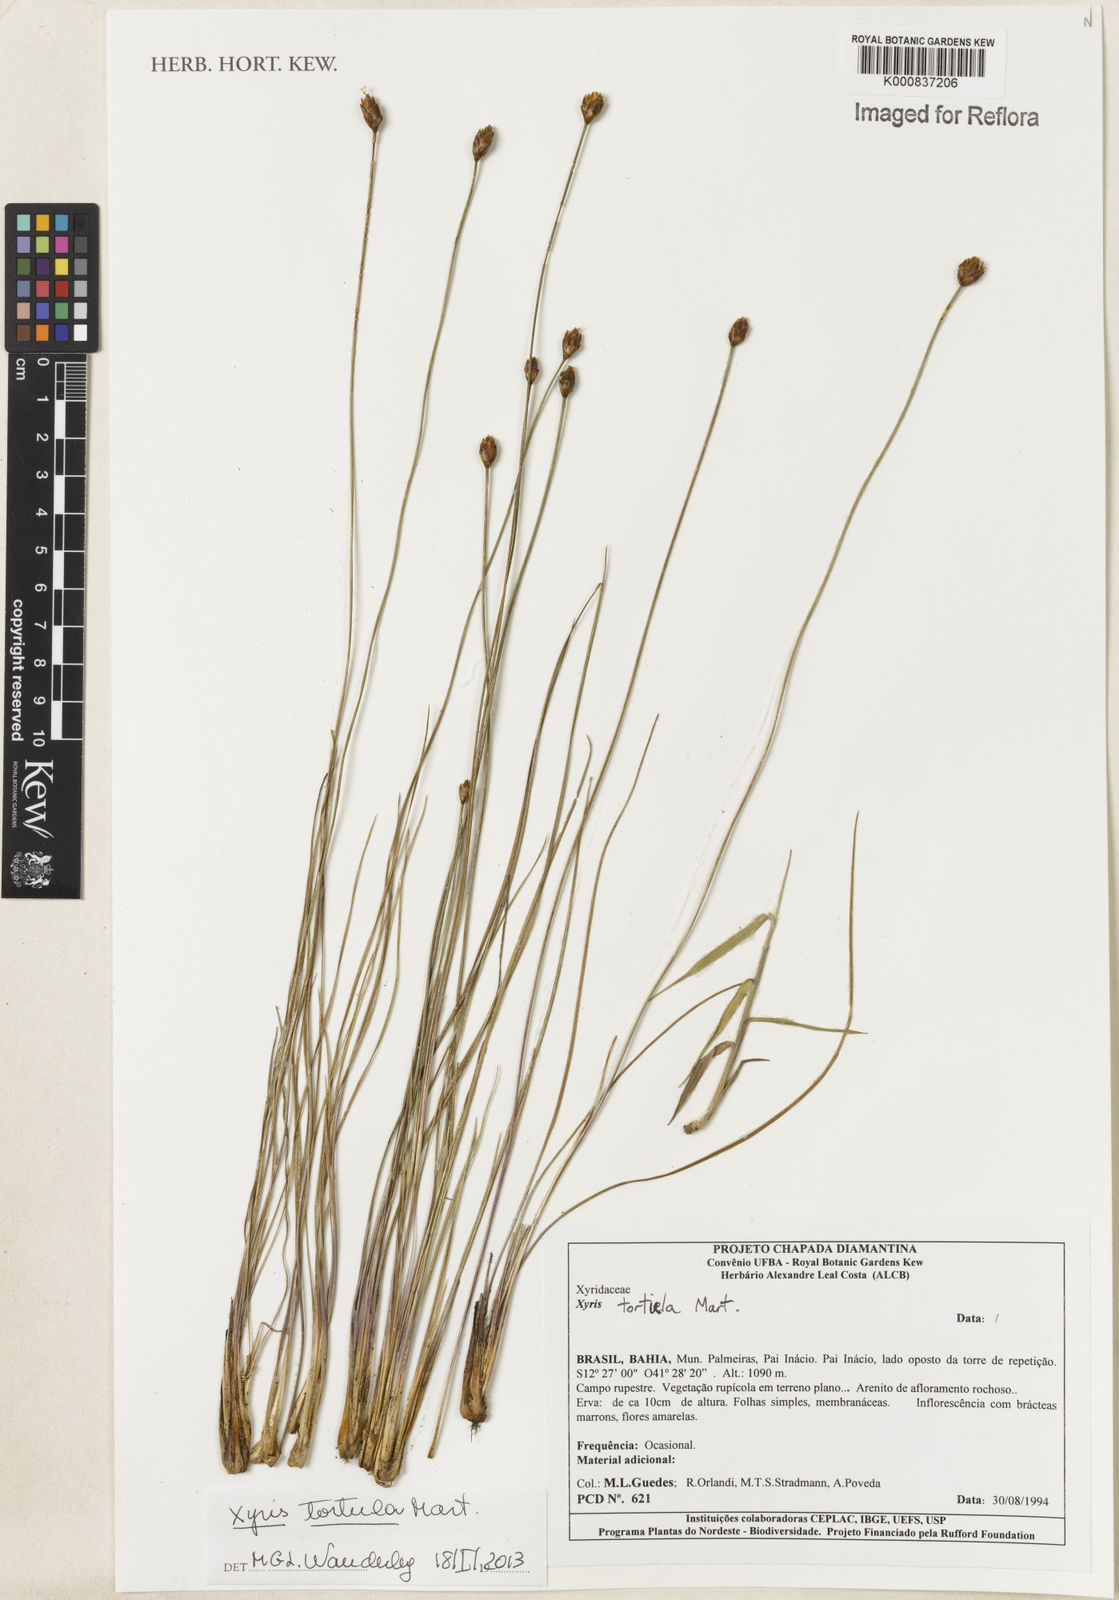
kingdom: Plantae
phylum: Tracheophyta
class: Liliopsida
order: Poales
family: Xyridaceae
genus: Xyris
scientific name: Xyris tortula
